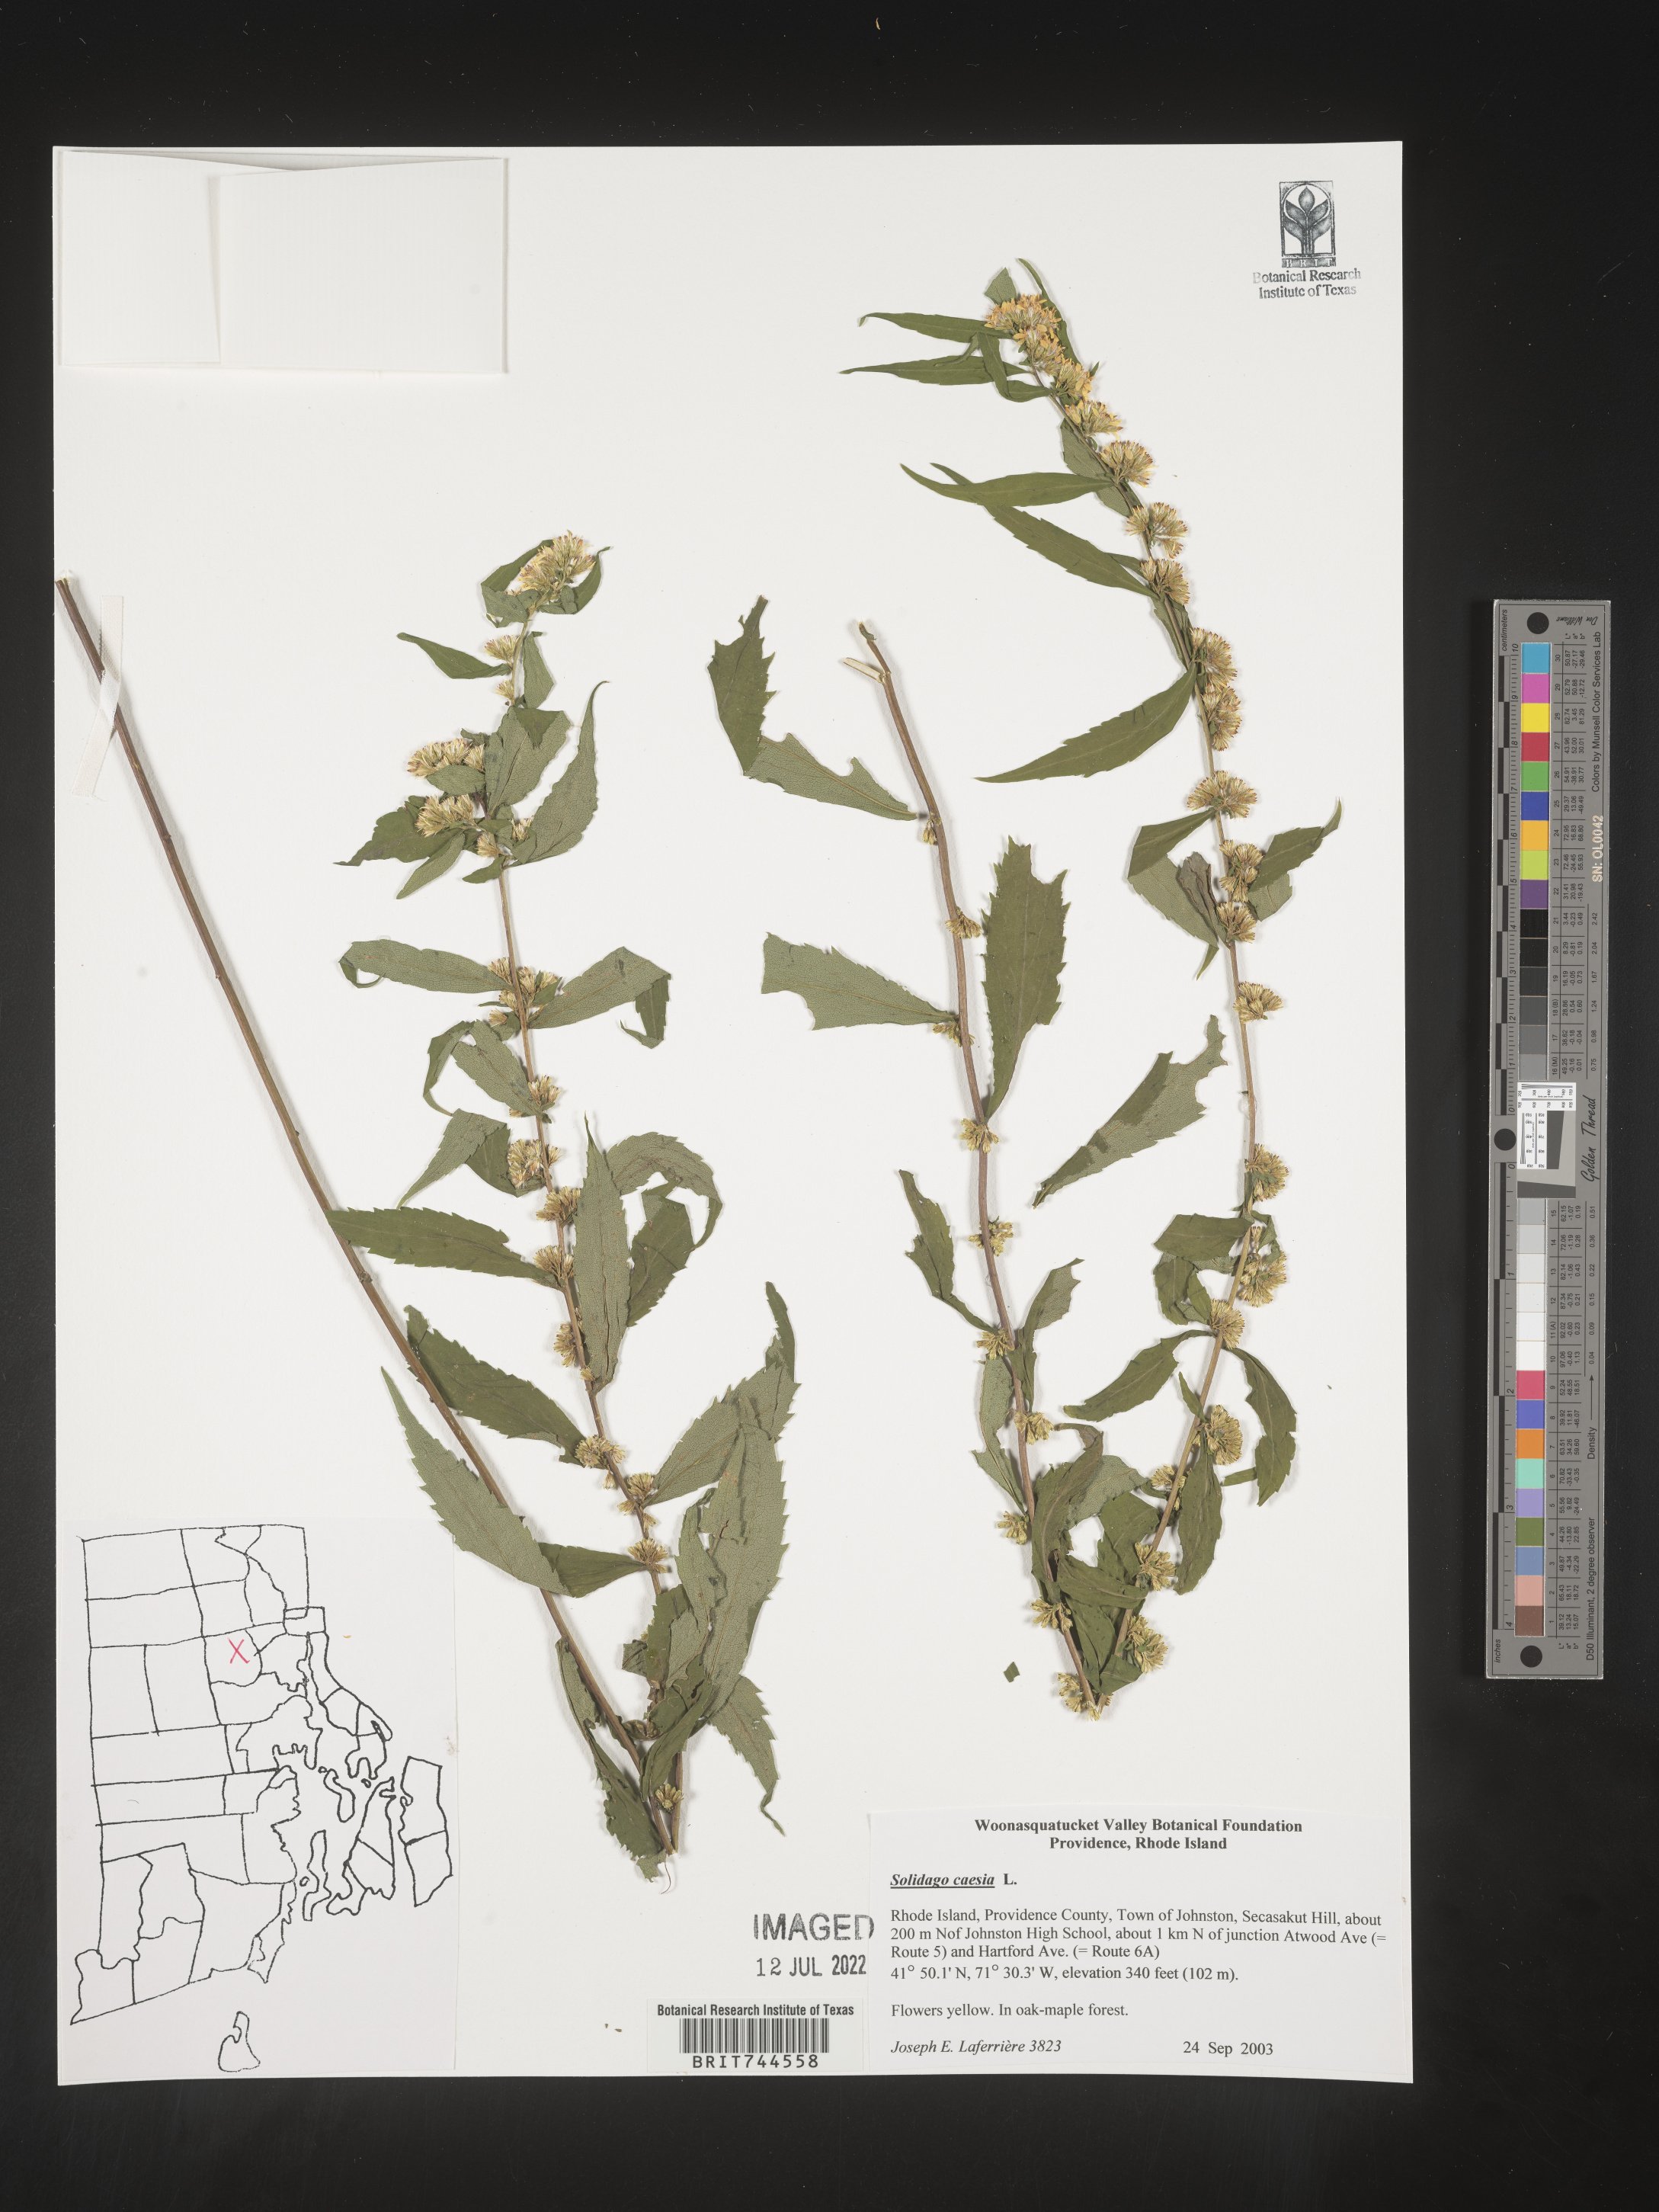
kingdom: Plantae
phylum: Tracheophyta
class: Magnoliopsida
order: Asterales
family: Asteraceae
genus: Solidago
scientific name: Solidago caesia
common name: Woodland goldenrod
